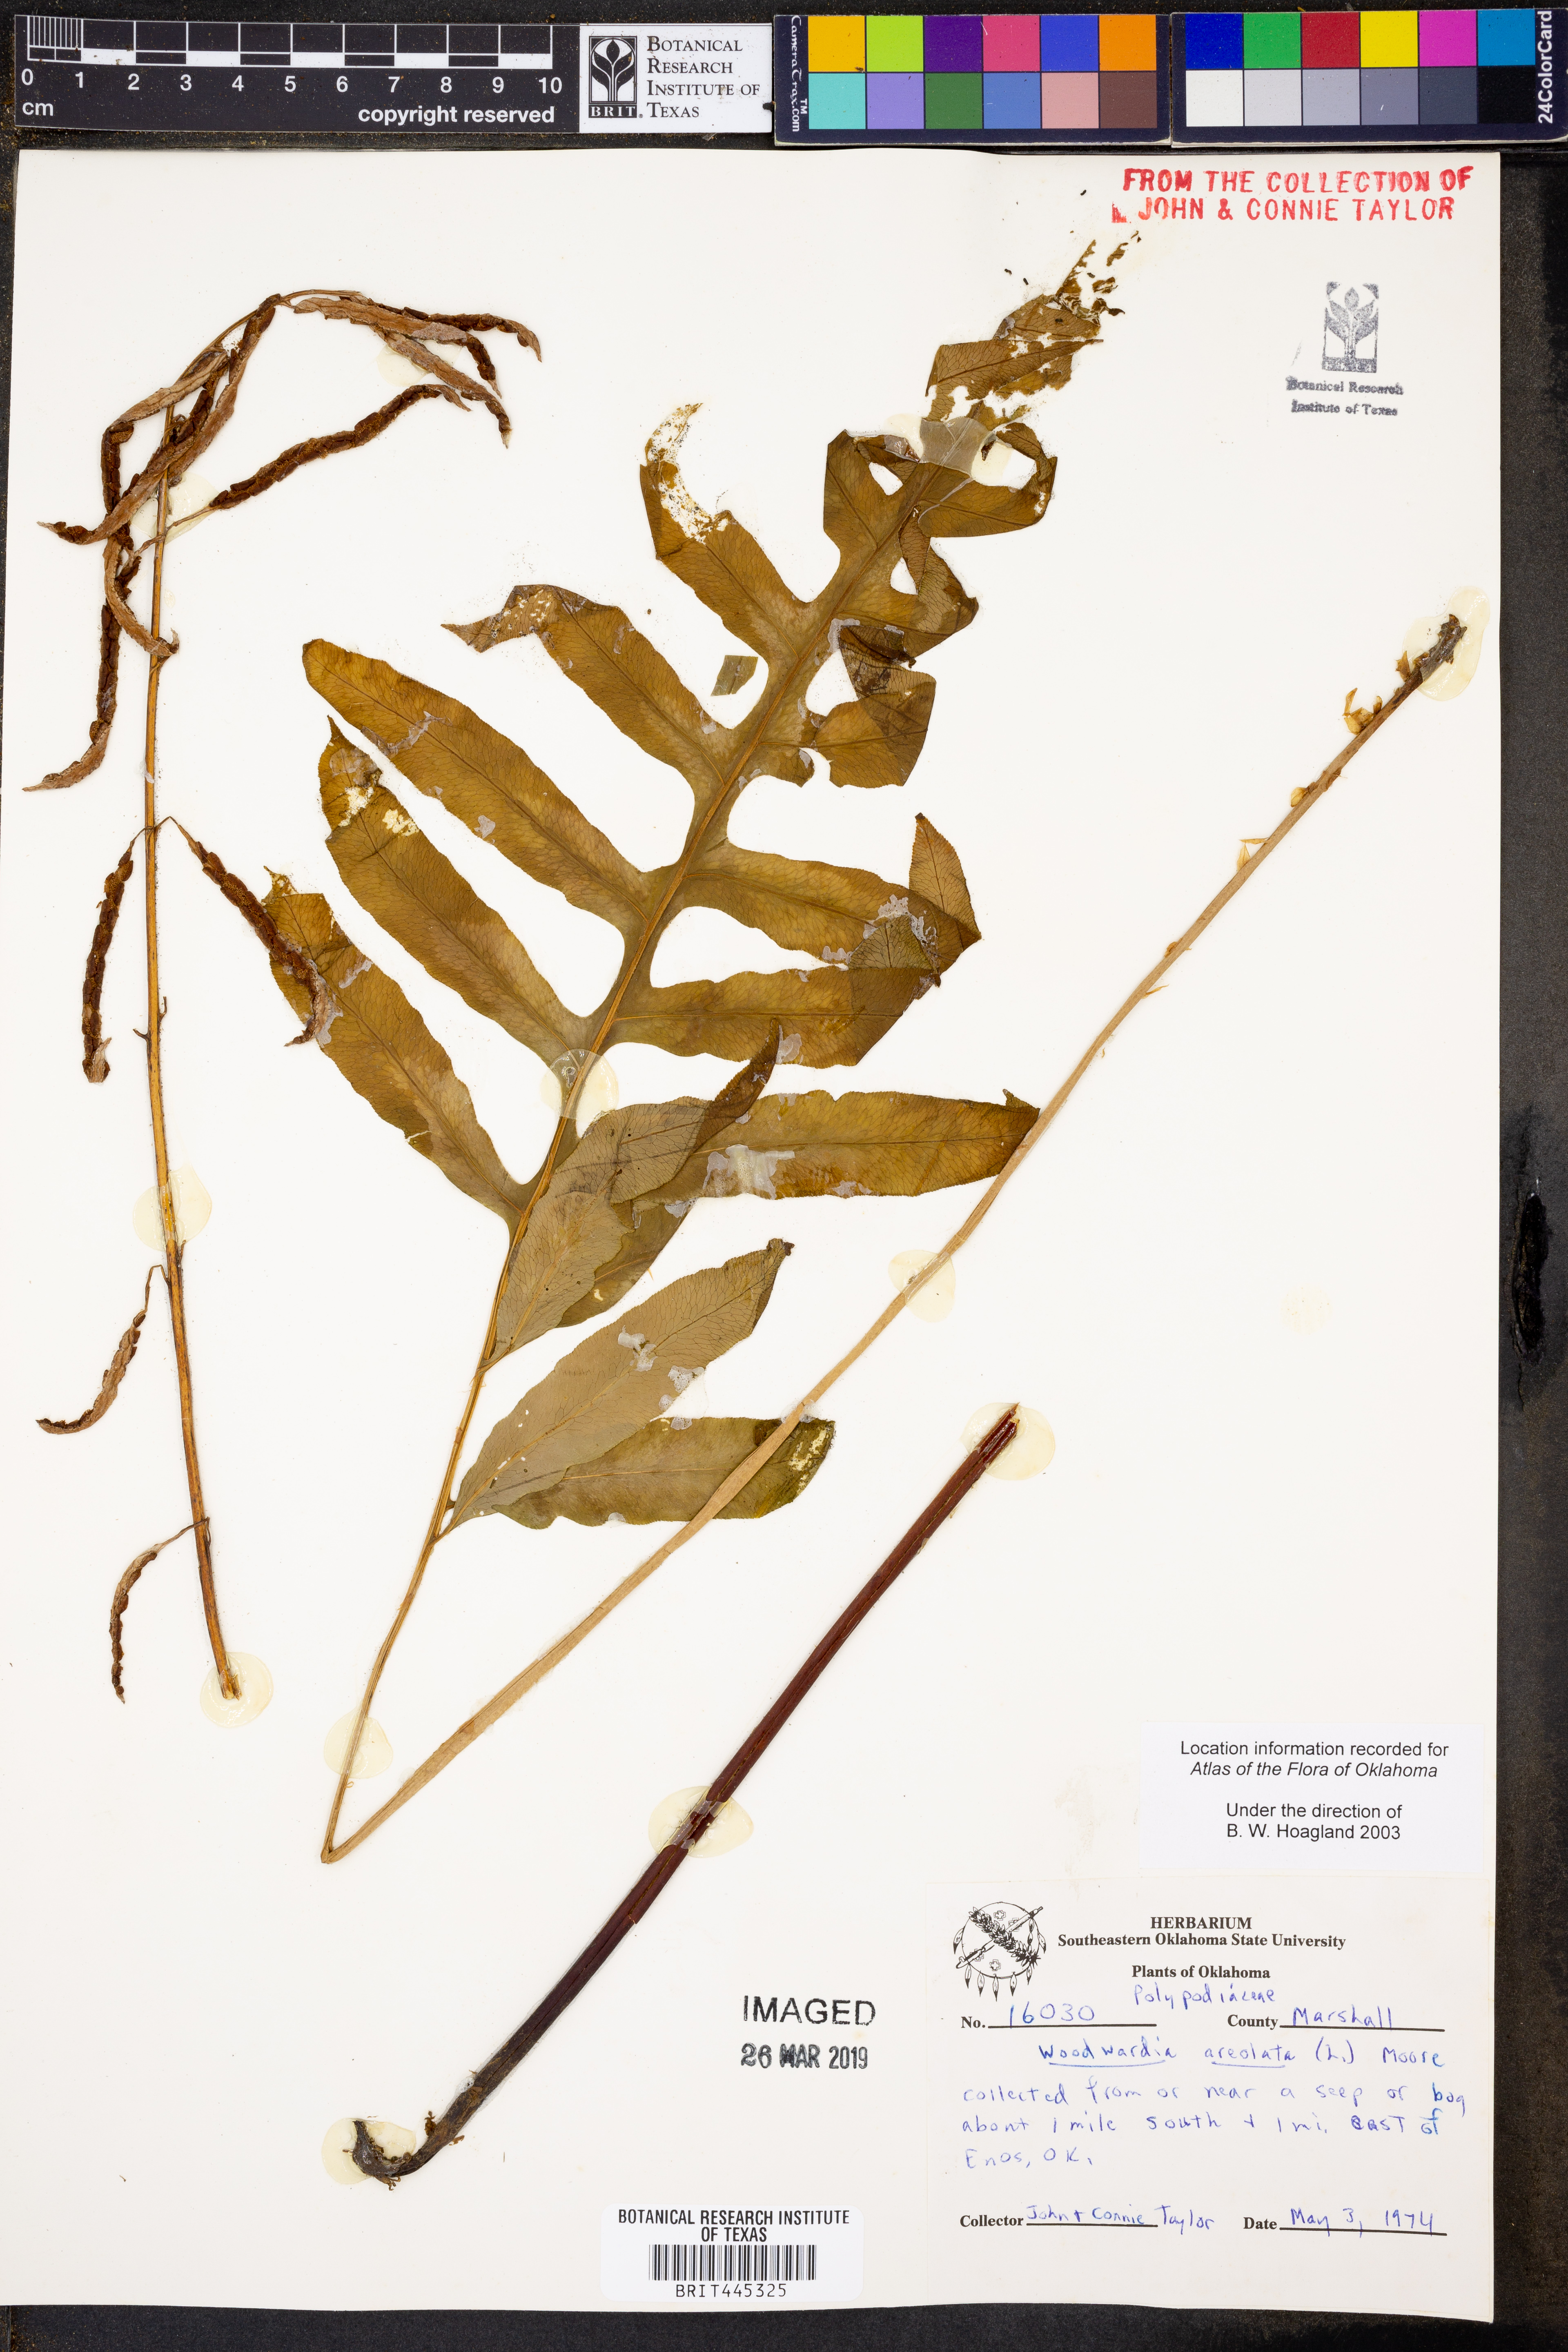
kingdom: Plantae
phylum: Tracheophyta
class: Polypodiopsida
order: Polypodiales
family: Blechnaceae
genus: Lorinseria
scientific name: Lorinseria areolata
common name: Dwarf chain fern
